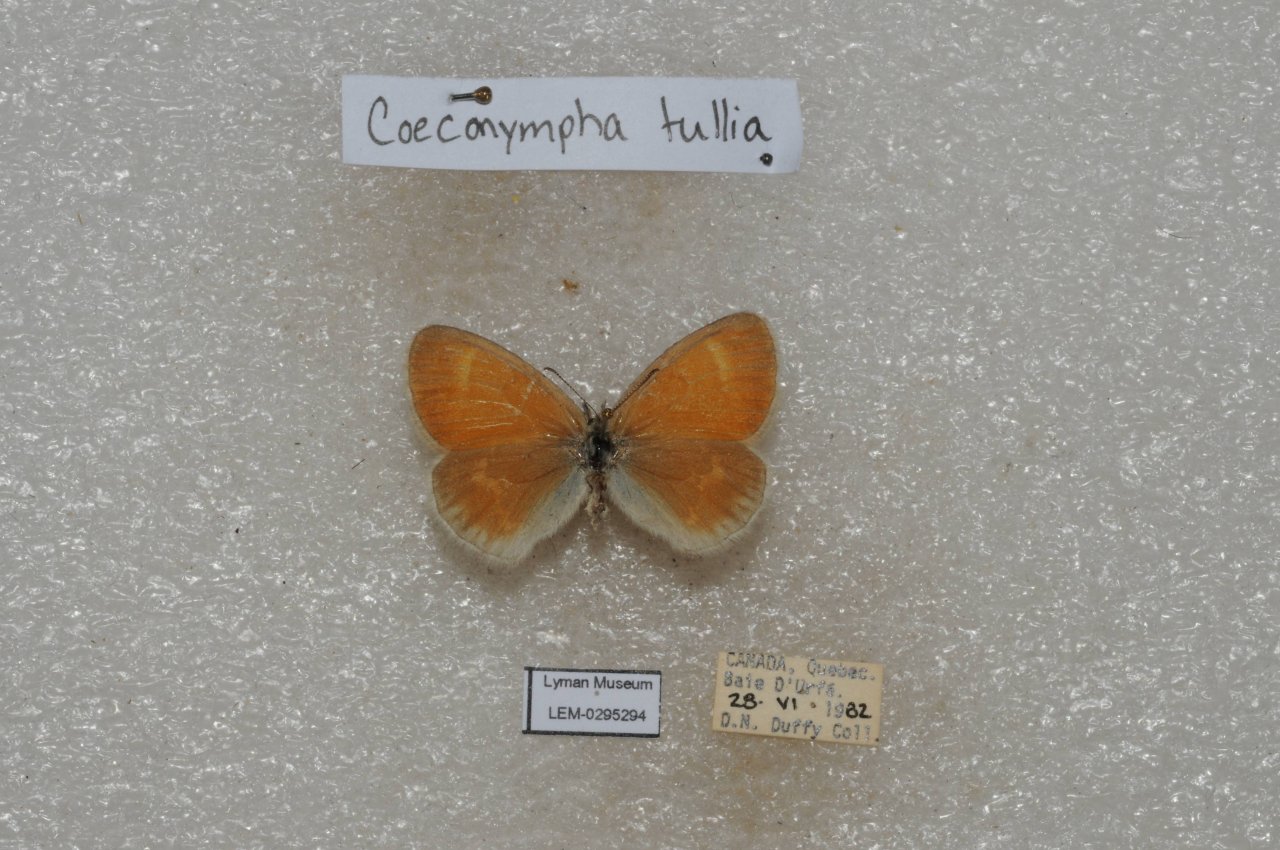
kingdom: Animalia
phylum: Arthropoda
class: Insecta
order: Lepidoptera
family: Nymphalidae
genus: Coenonympha
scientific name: Coenonympha tullia
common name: Large Heath
